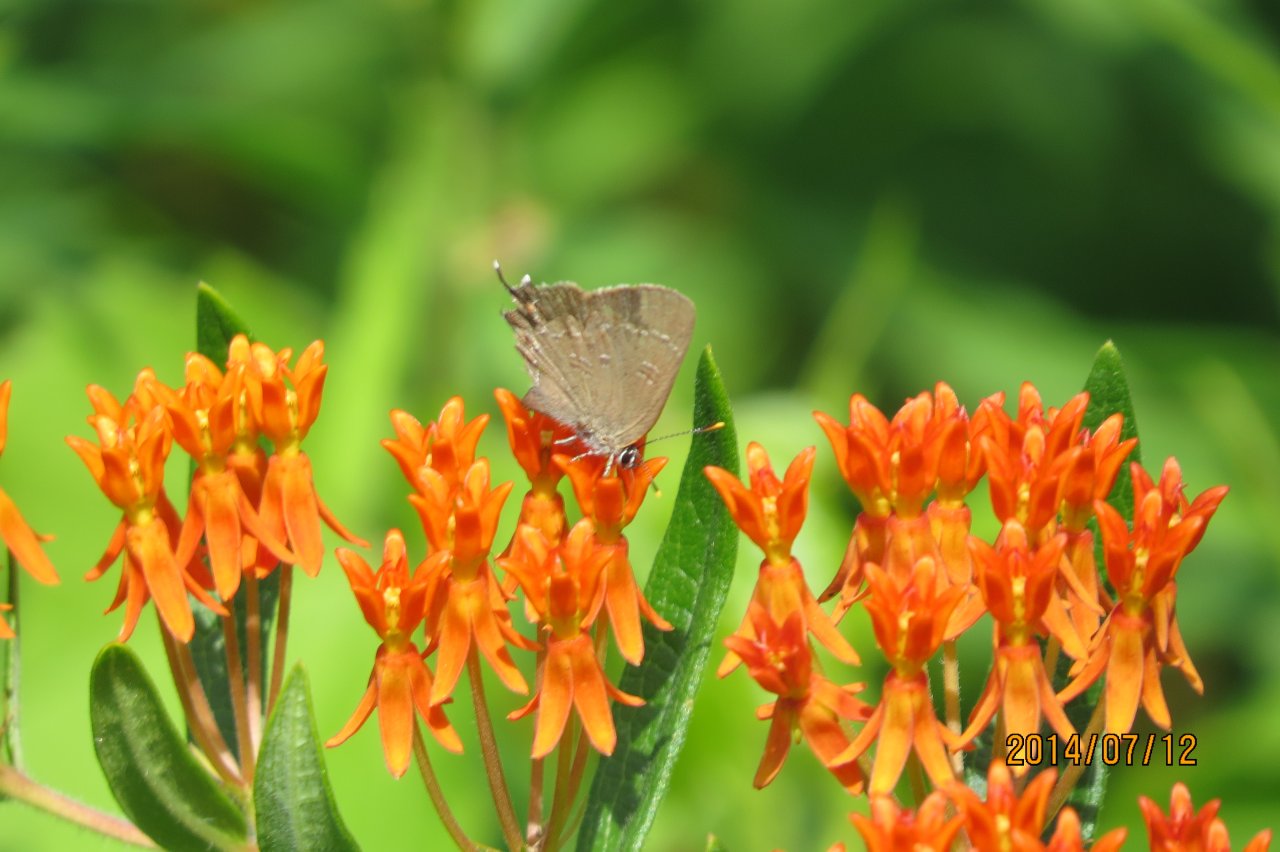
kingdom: Animalia
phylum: Arthropoda
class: Insecta
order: Lepidoptera
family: Lycaenidae
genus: Satyrium
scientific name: Satyrium calanus
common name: Banded Hairstreak
